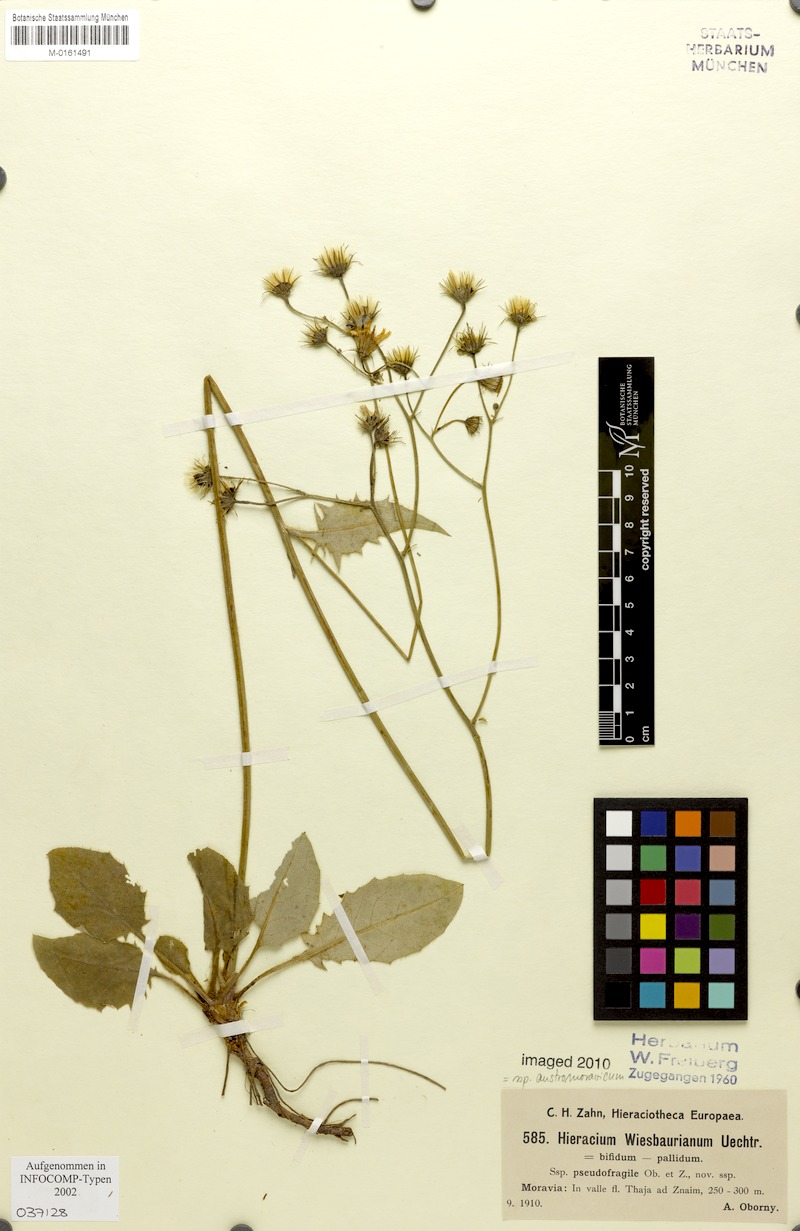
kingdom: Plantae
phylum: Tracheophyta
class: Magnoliopsida
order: Asterales
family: Asteraceae
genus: Hieracium
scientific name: Hieracium hypochoeroides
